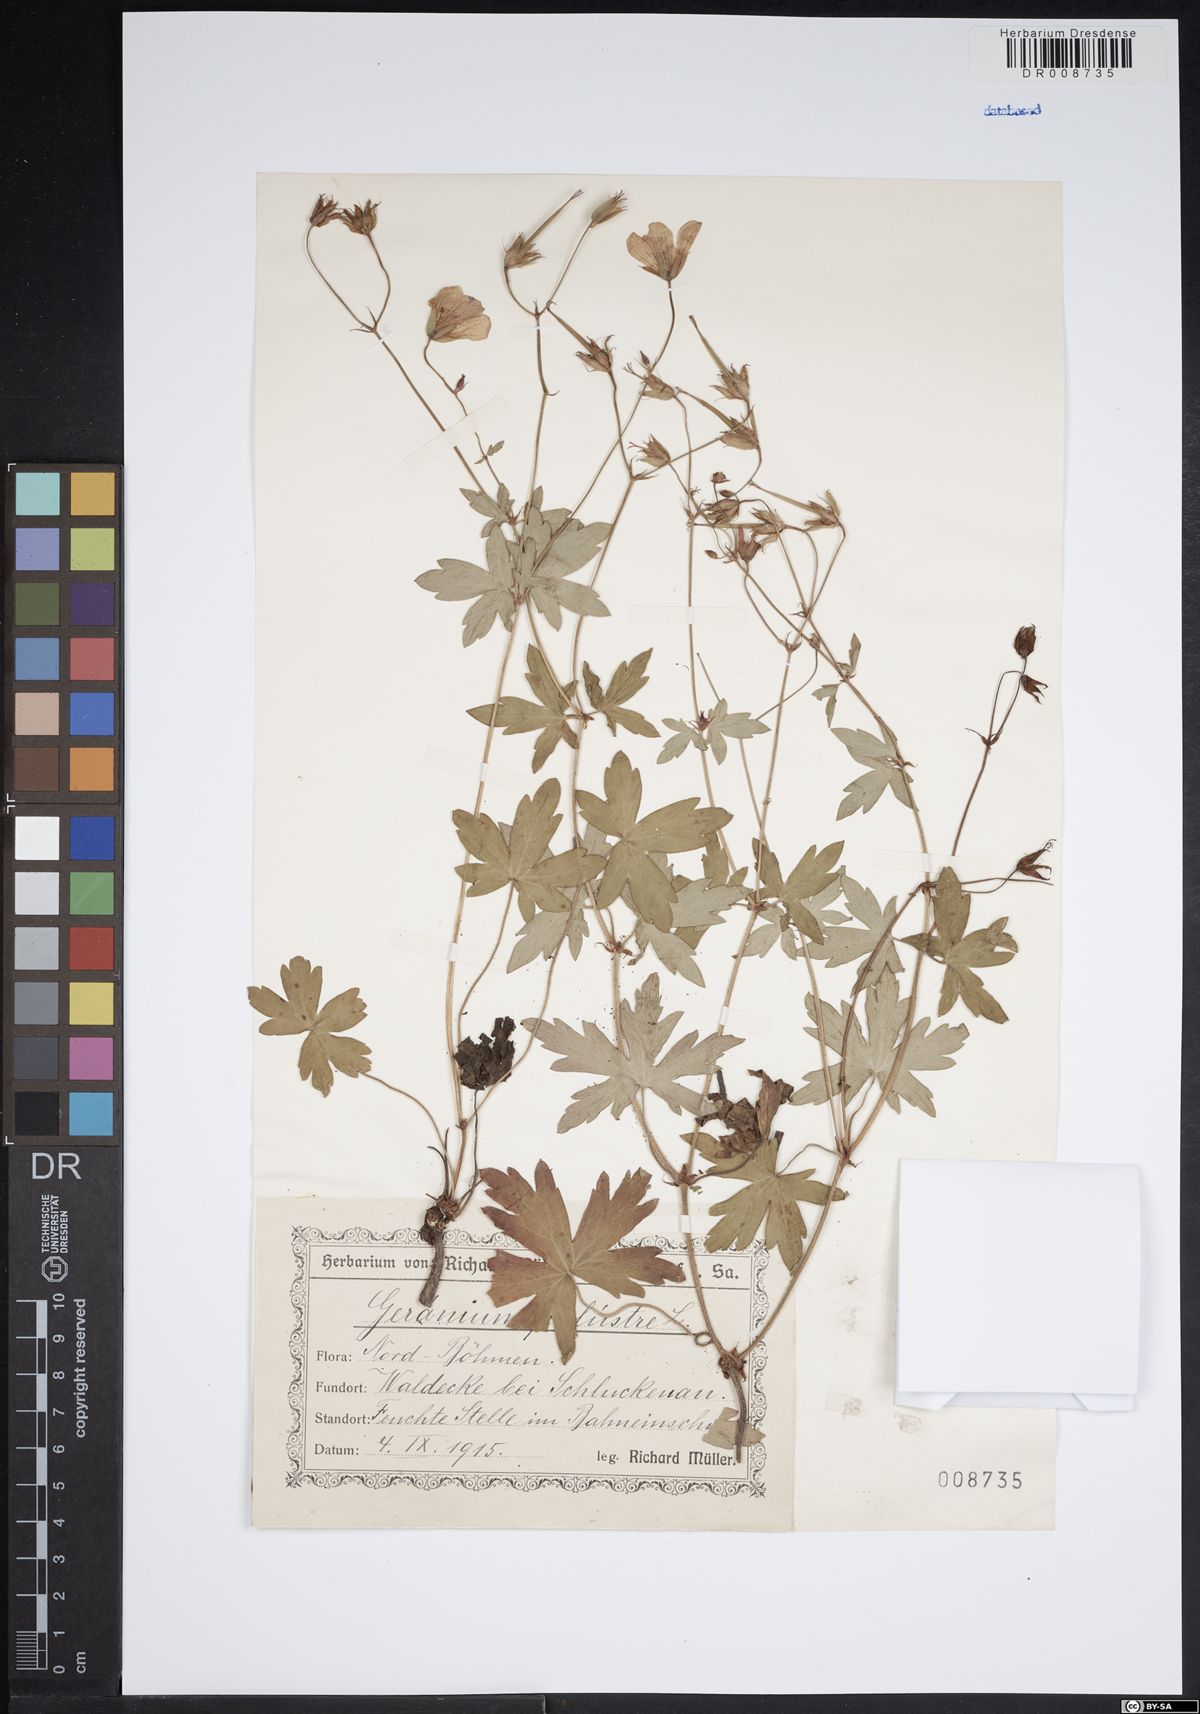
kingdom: Plantae
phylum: Tracheophyta
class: Magnoliopsida
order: Geraniales
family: Geraniaceae
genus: Geranium
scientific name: Geranium palustre
